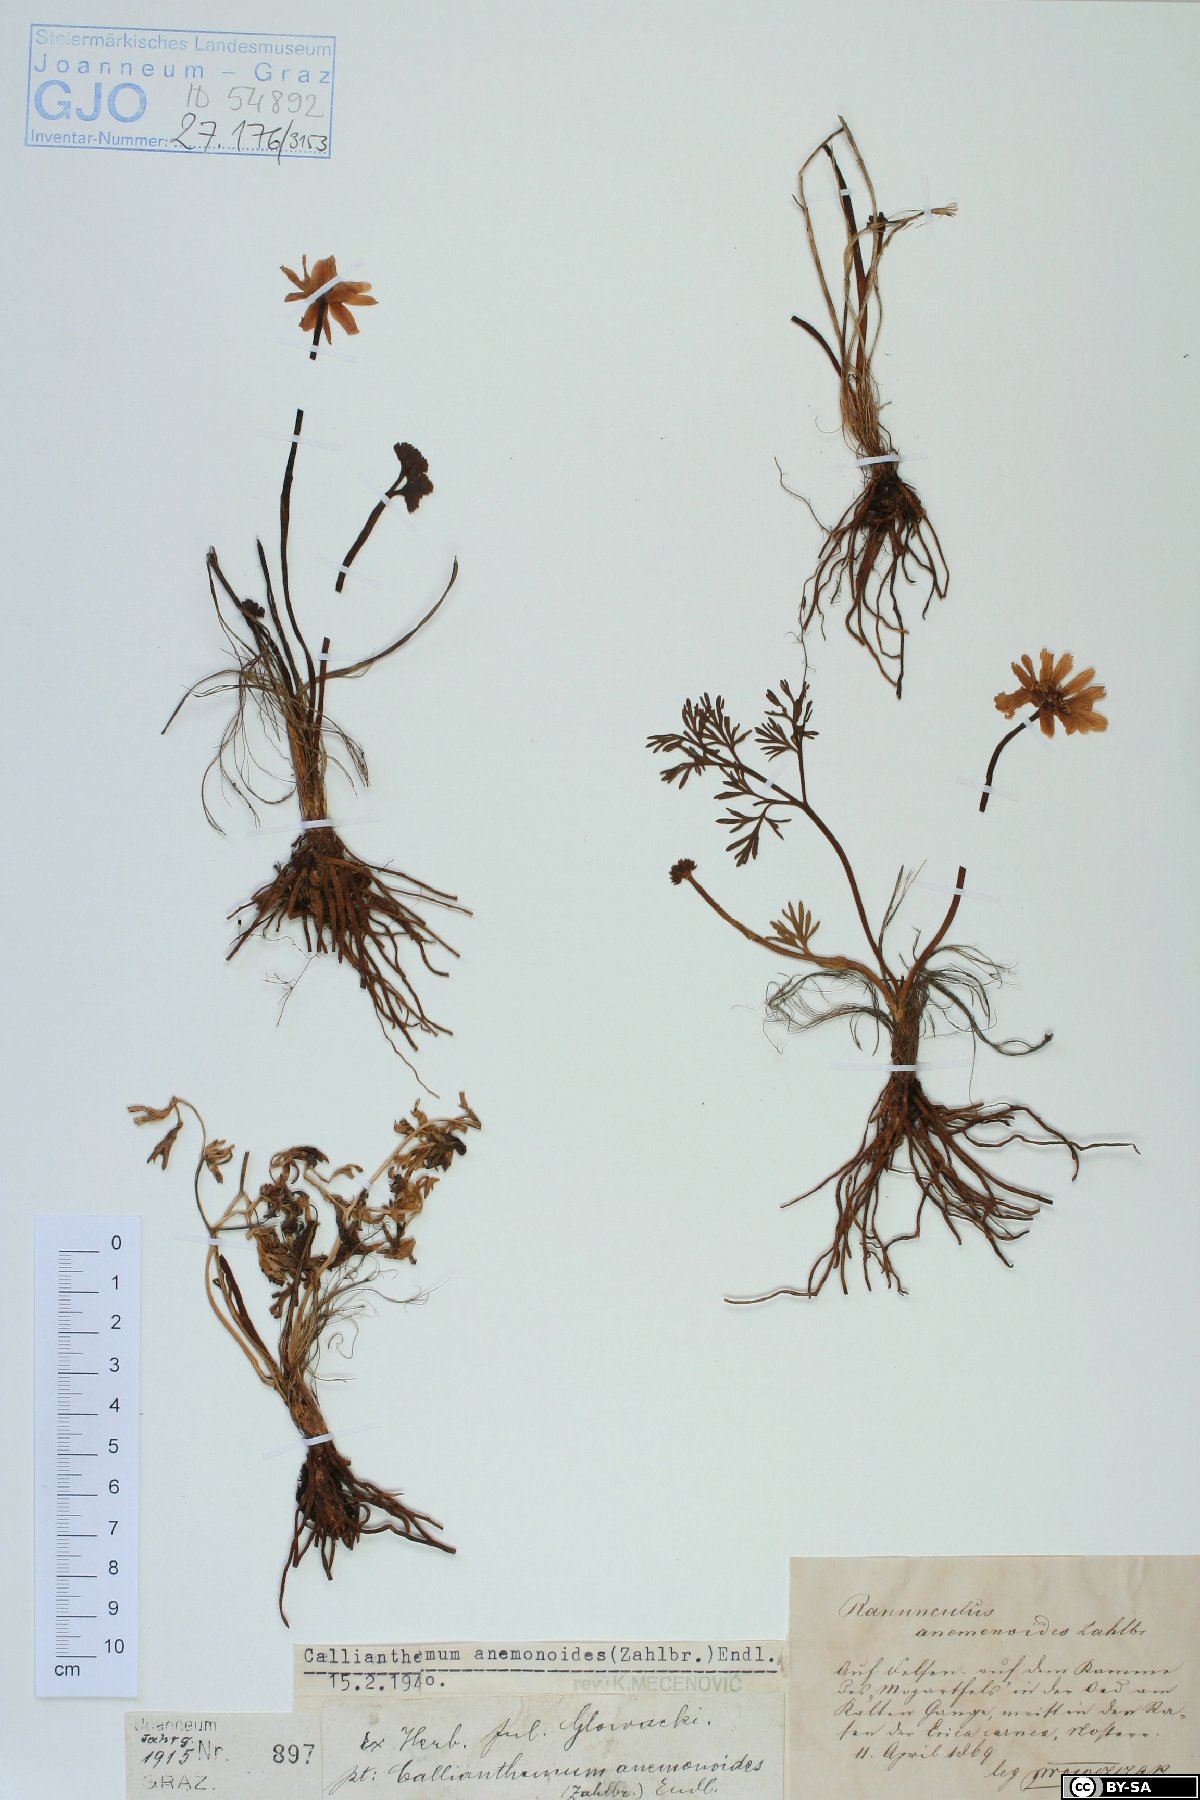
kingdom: Plantae
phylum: Tracheophyta
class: Magnoliopsida
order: Ranunculales
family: Ranunculaceae
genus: Callianthemum
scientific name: Callianthemum anemonoides
